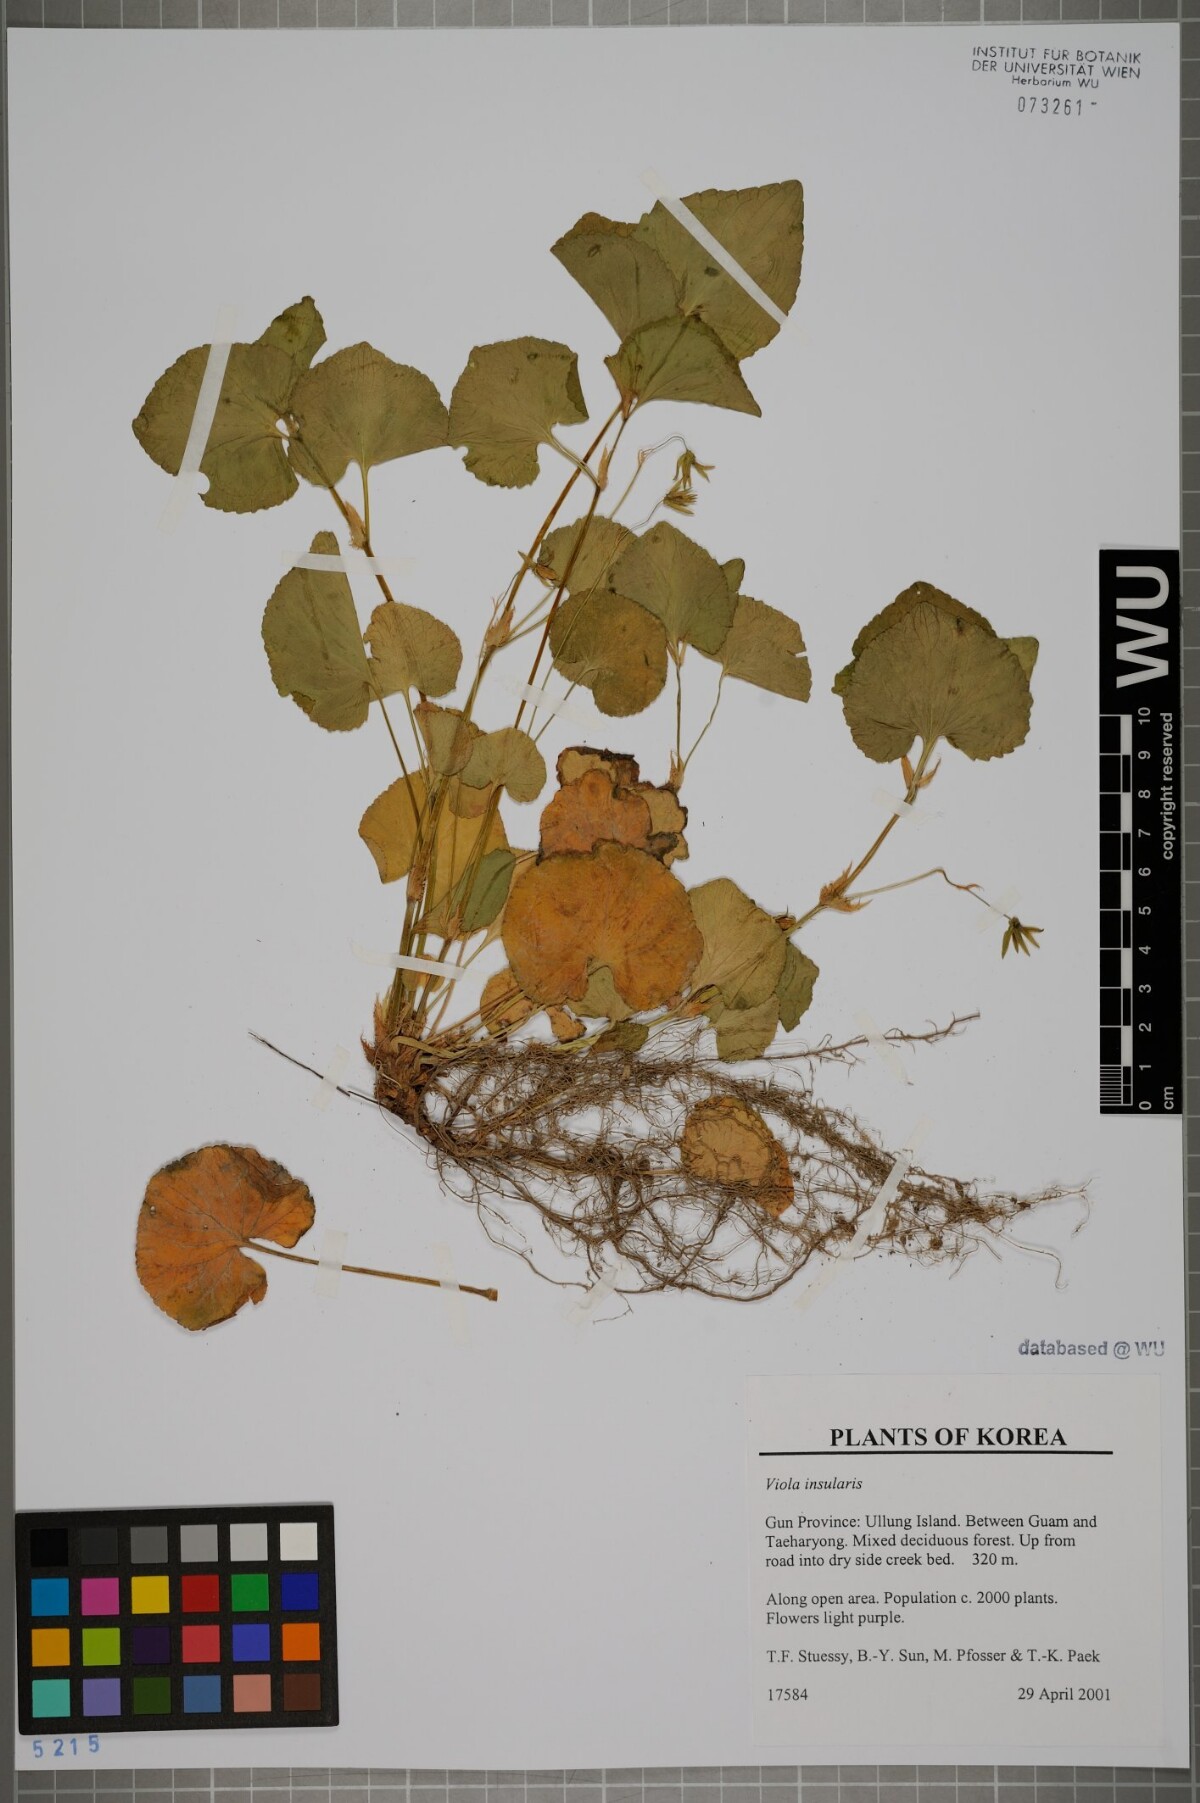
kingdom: Plantae
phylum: Tracheophyta
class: Magnoliopsida
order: Malpighiales
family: Violaceae
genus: Viola
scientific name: Viola kusanoana
